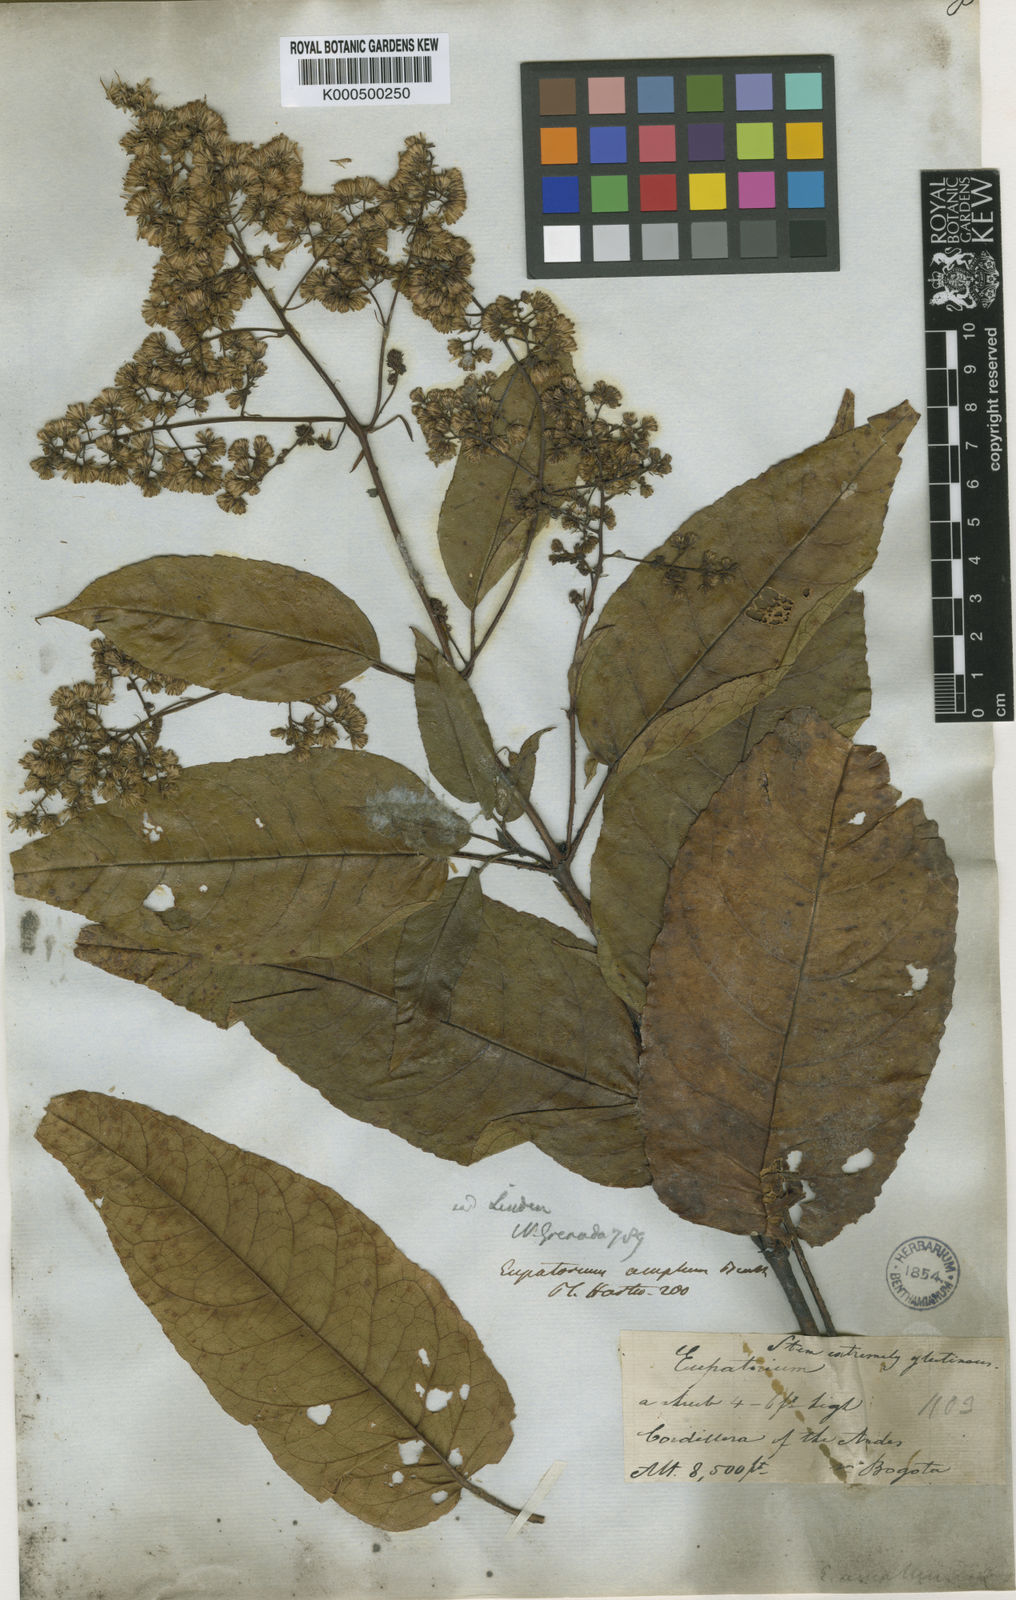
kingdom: Plantae
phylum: Tracheophyta
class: Magnoliopsida
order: Asterales
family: Asteraceae
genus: Ageratina
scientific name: Ageratina ampla
